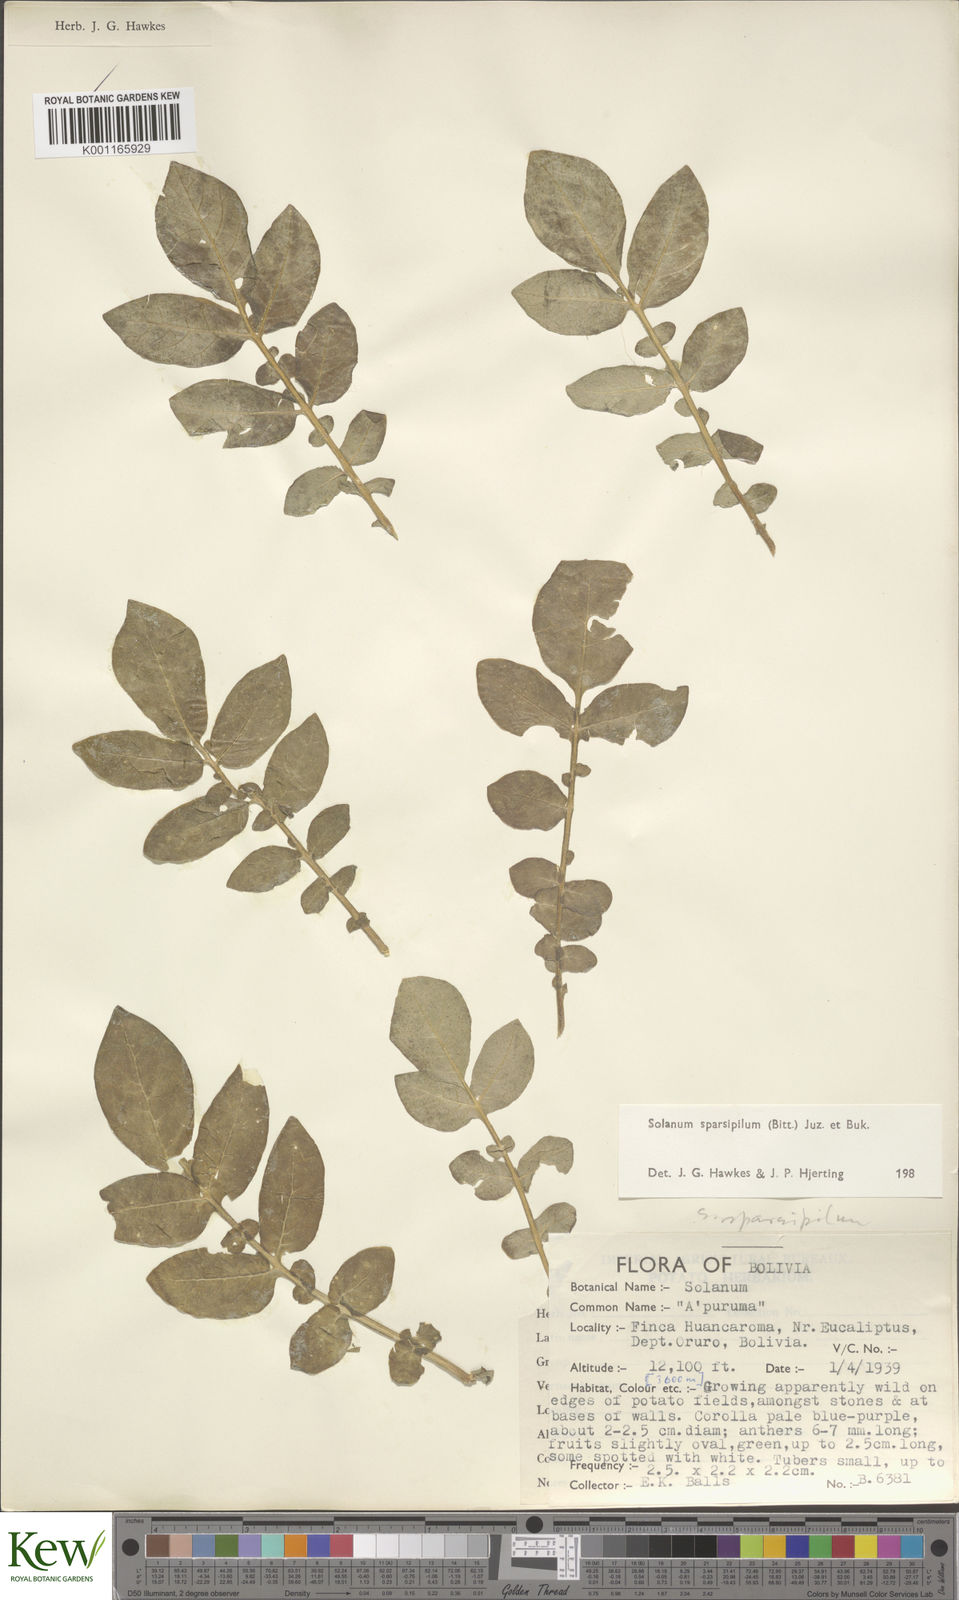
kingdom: Plantae
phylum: Tracheophyta
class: Magnoliopsida
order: Solanales
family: Solanaceae
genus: Solanum
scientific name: Solanum brevicaule
